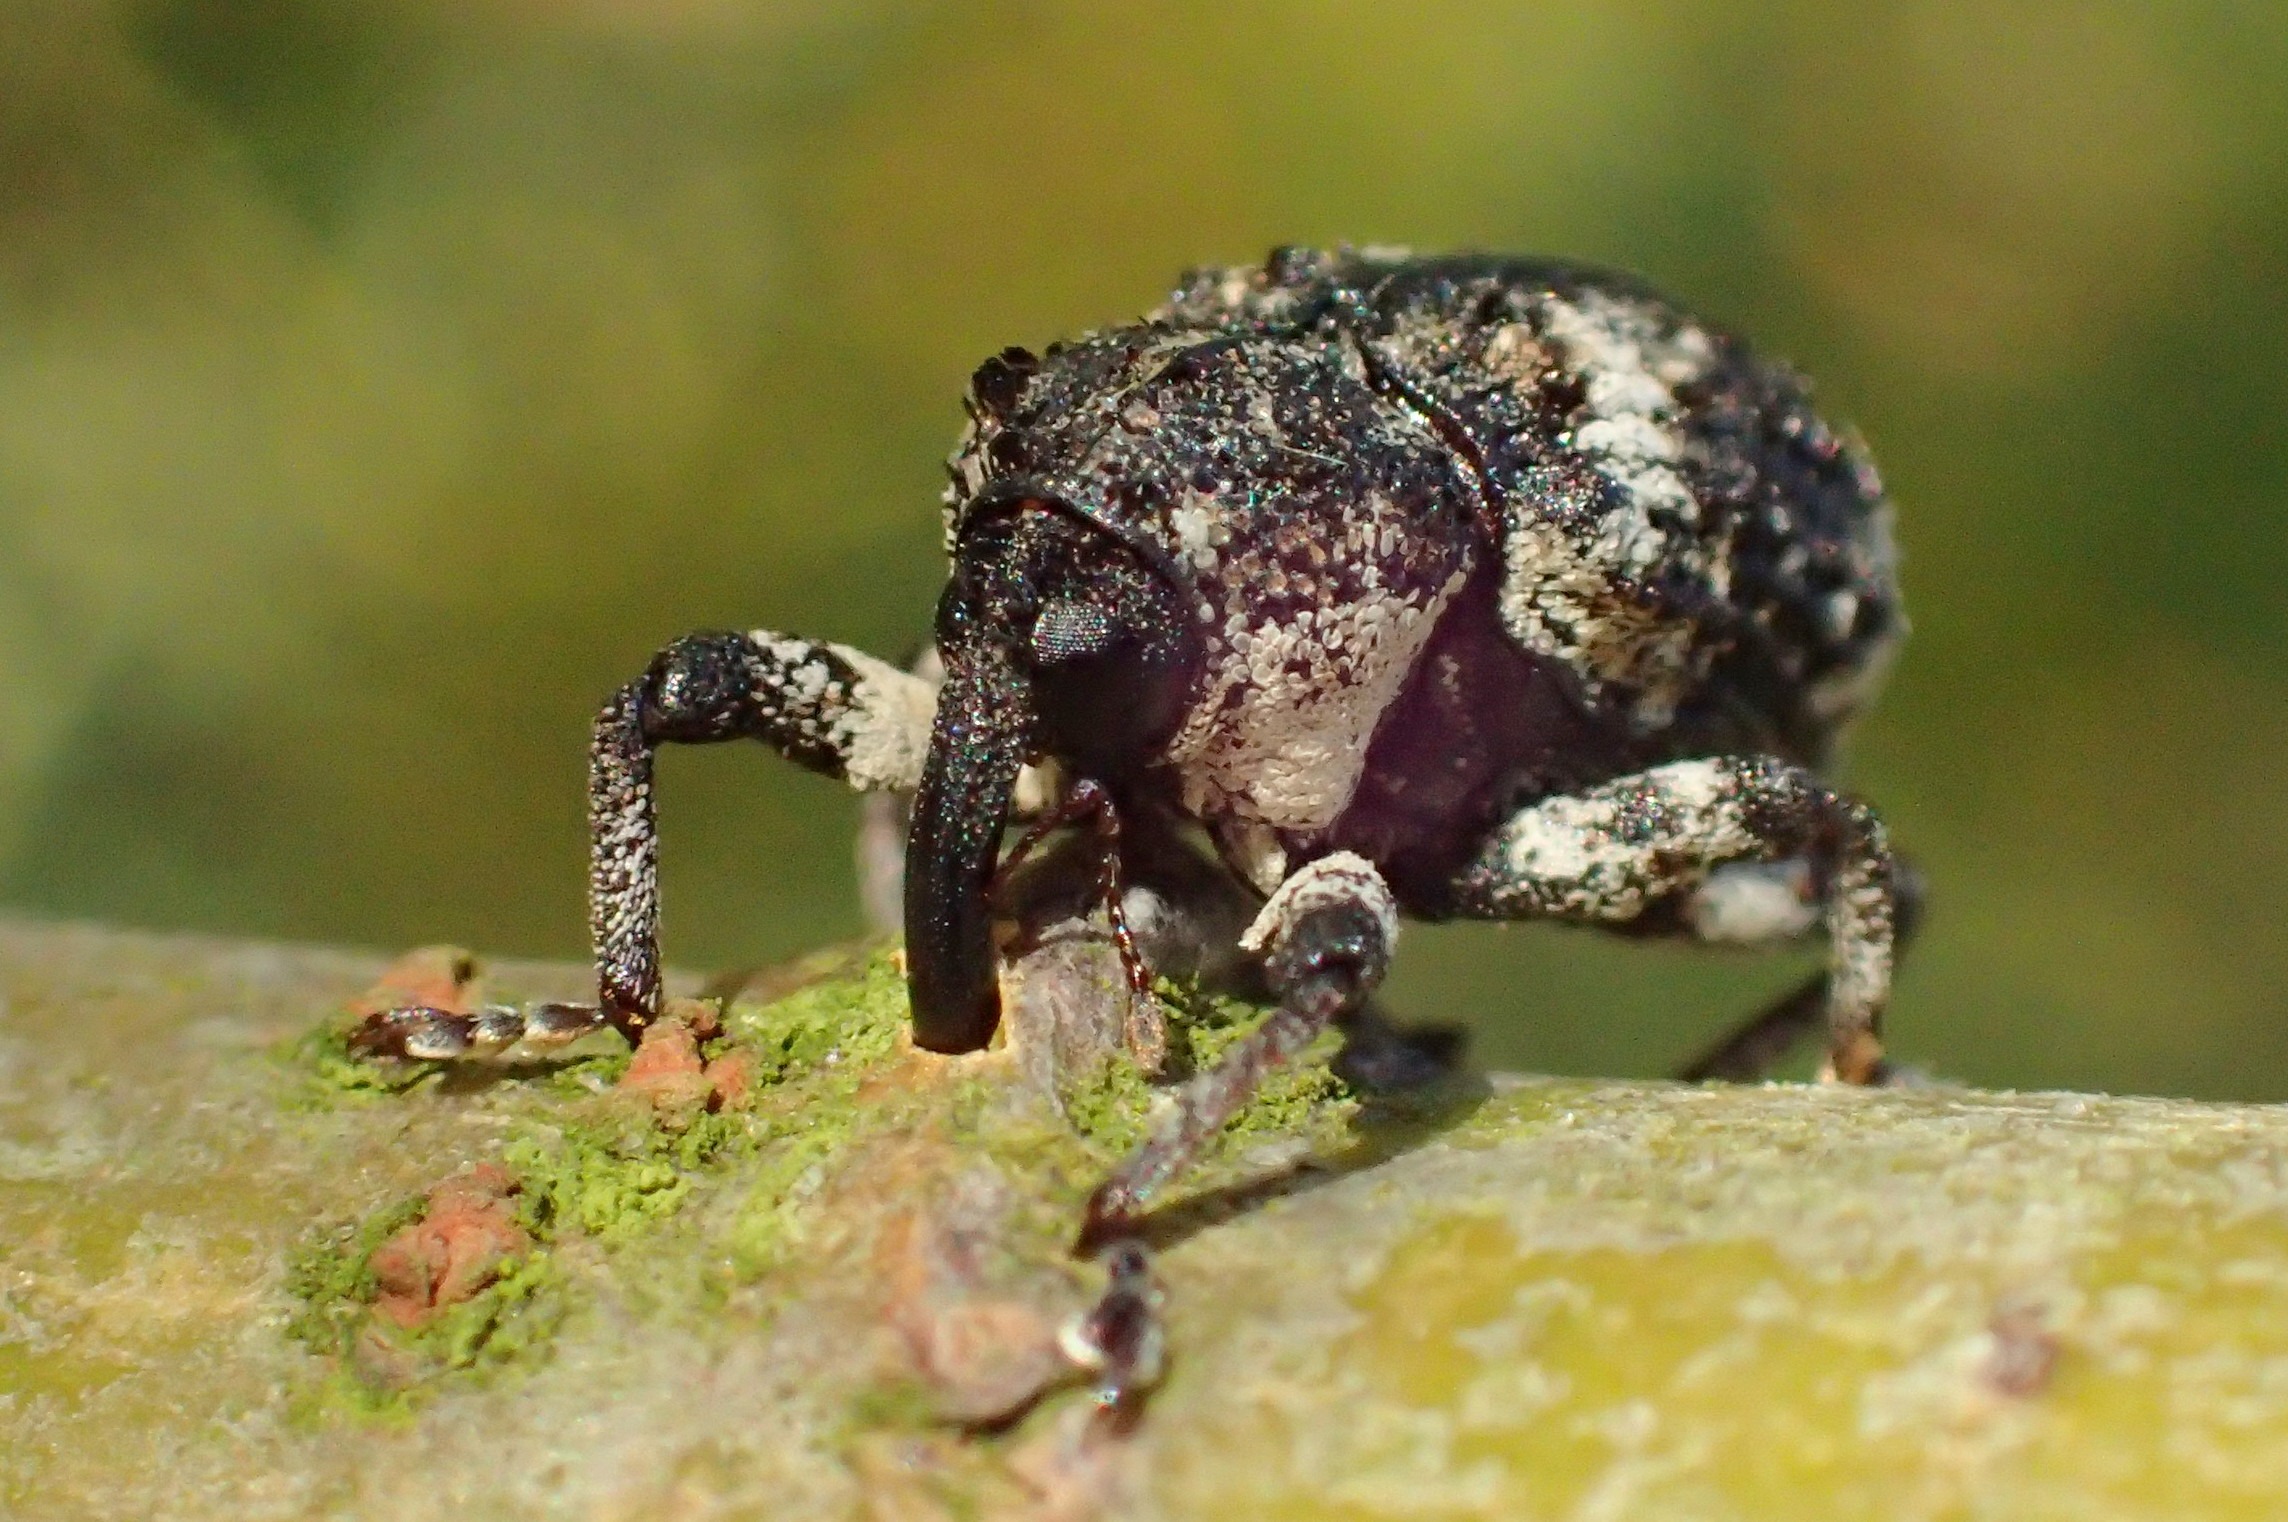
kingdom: Animalia
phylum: Arthropoda
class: Insecta
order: Coleoptera
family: Curculionidae
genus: Cryptorhynchus
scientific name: Cryptorhynchus lapathi
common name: Ellesnudebille
